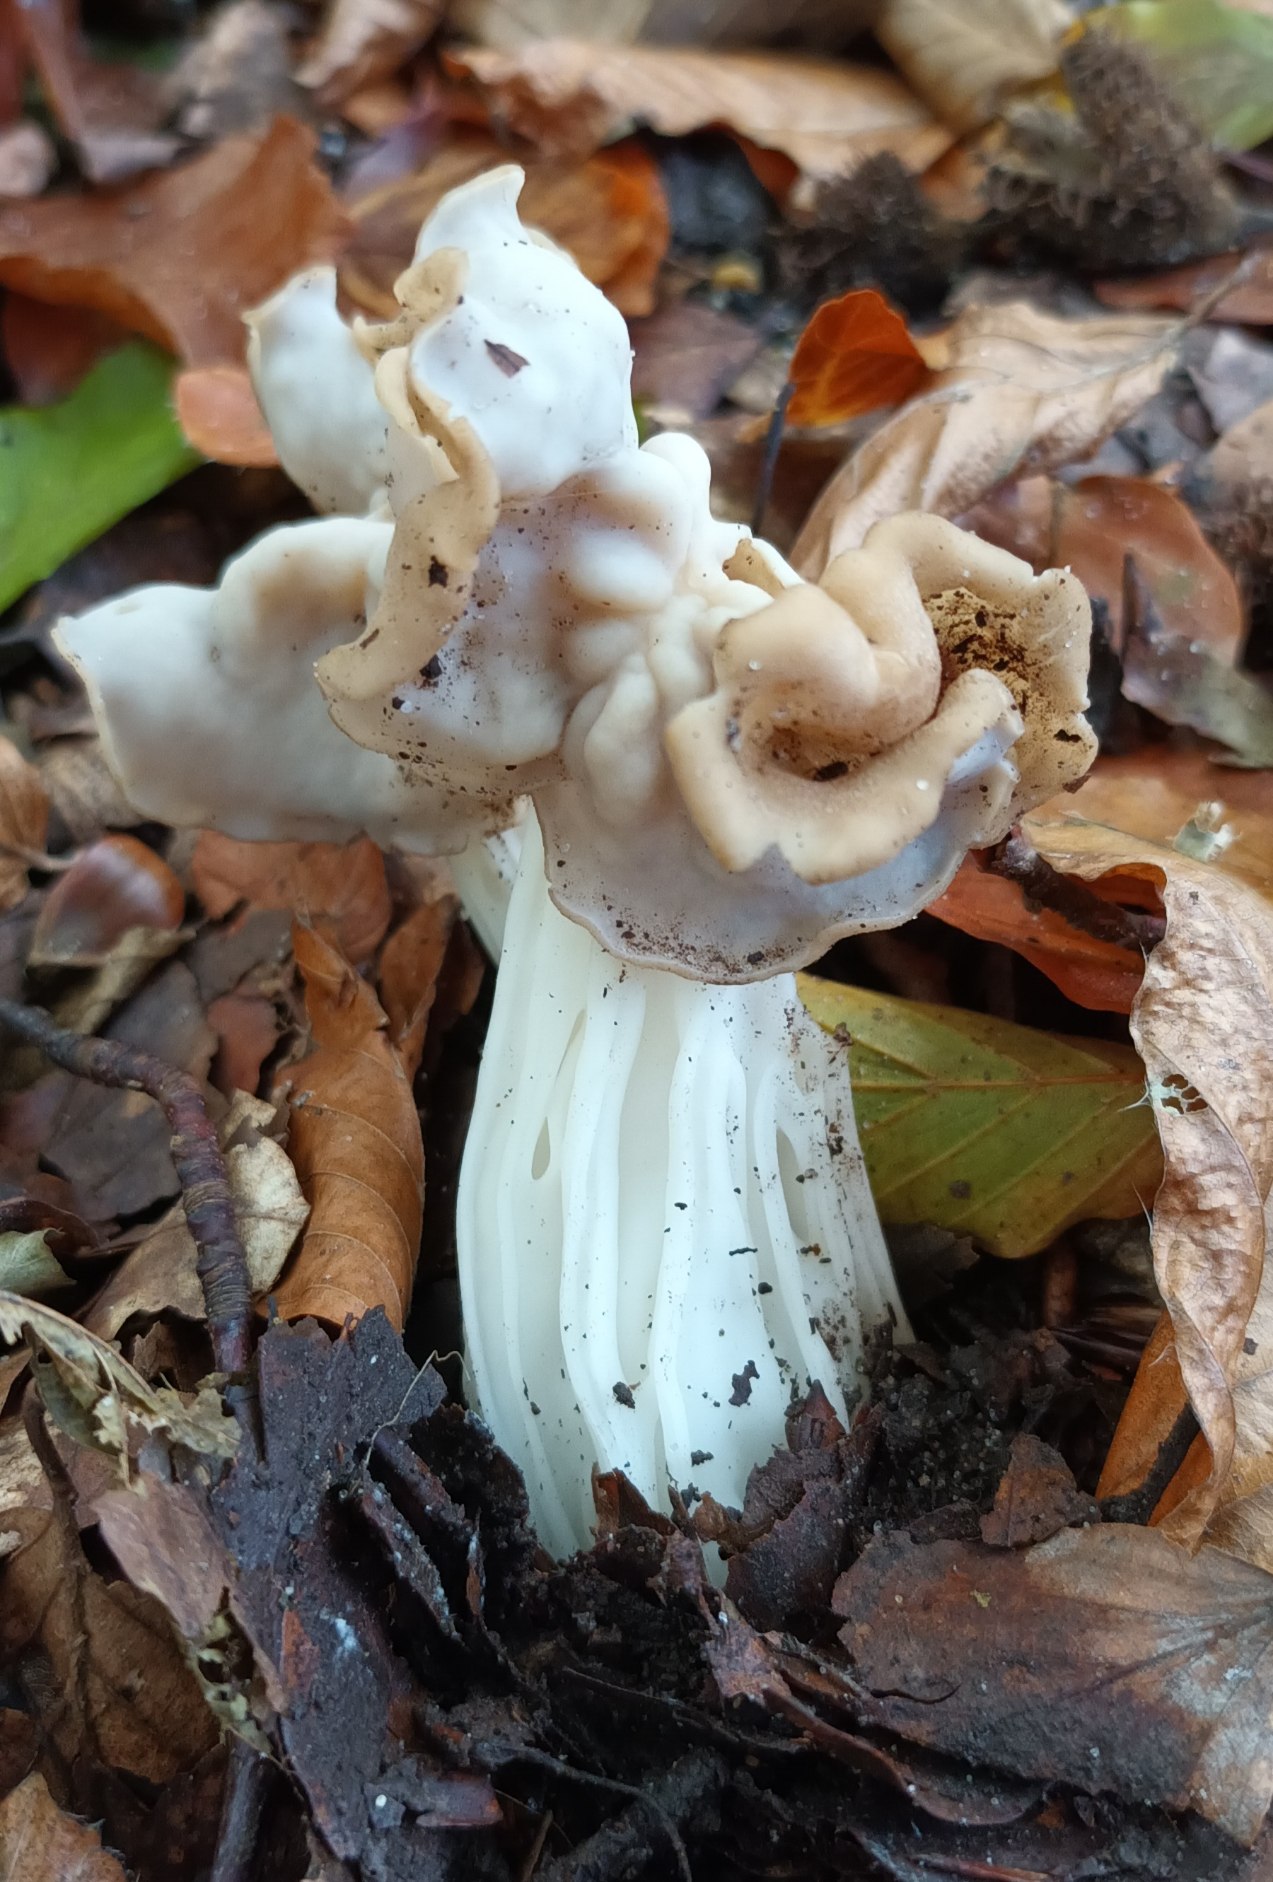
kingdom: Fungi
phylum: Ascomycota
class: Pezizomycetes
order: Pezizales
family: Helvellaceae
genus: Helvella
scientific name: Helvella crispa
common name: Kruset foldhat
